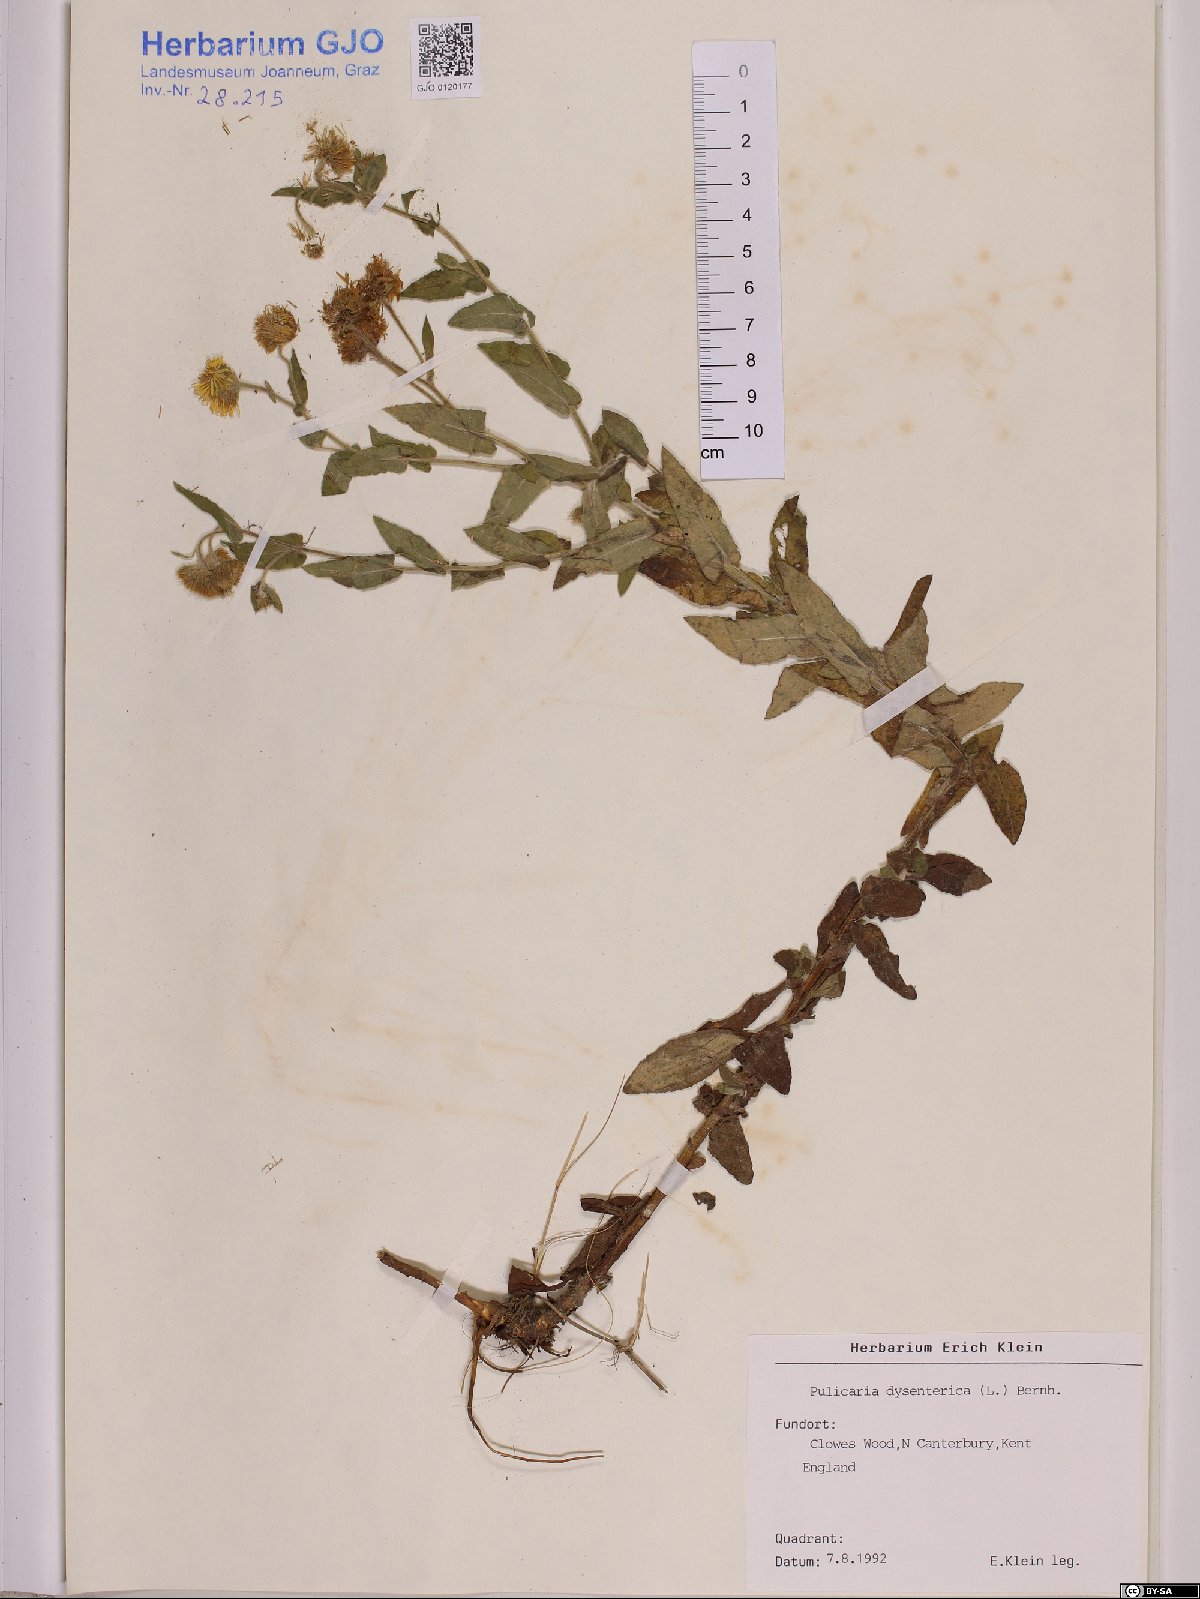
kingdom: Plantae
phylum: Tracheophyta
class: Magnoliopsida
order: Asterales
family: Asteraceae
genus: Pulicaria
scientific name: Pulicaria dysenterica
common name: Common fleabane
